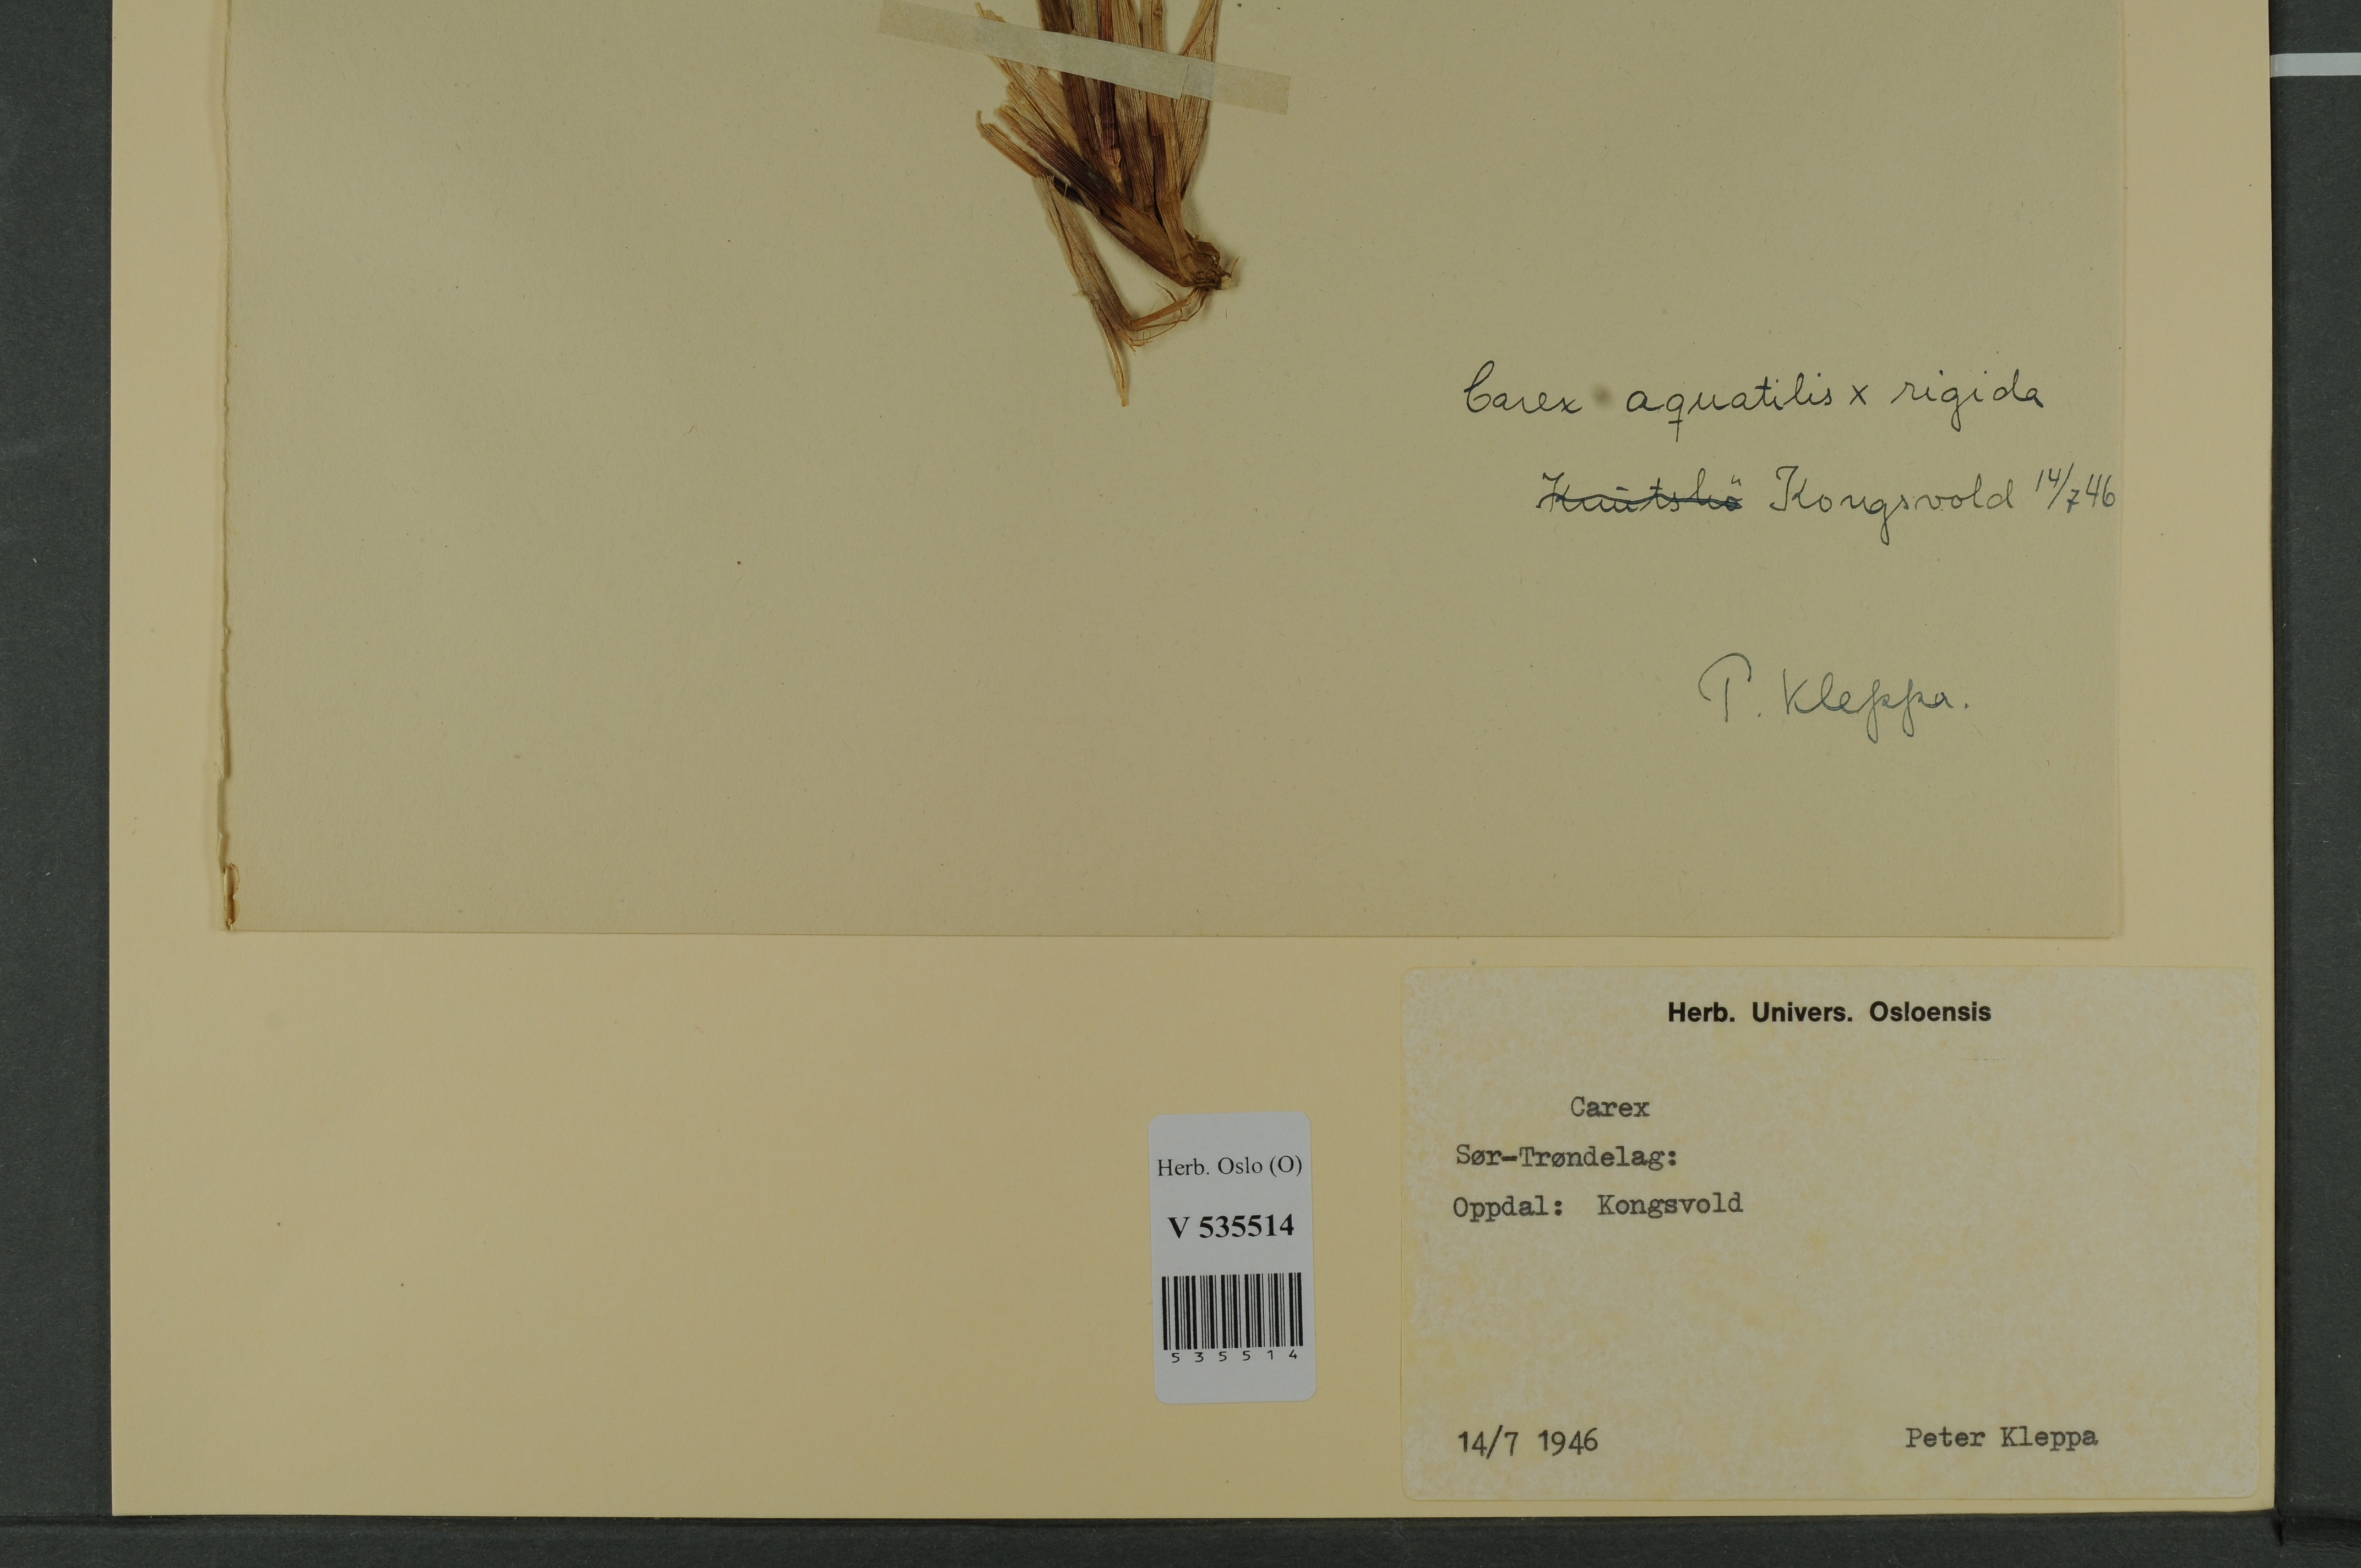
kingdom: Plantae
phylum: Tracheophyta
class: Liliopsida
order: Poales
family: Cyperaceae
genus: Carex
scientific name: Carex
